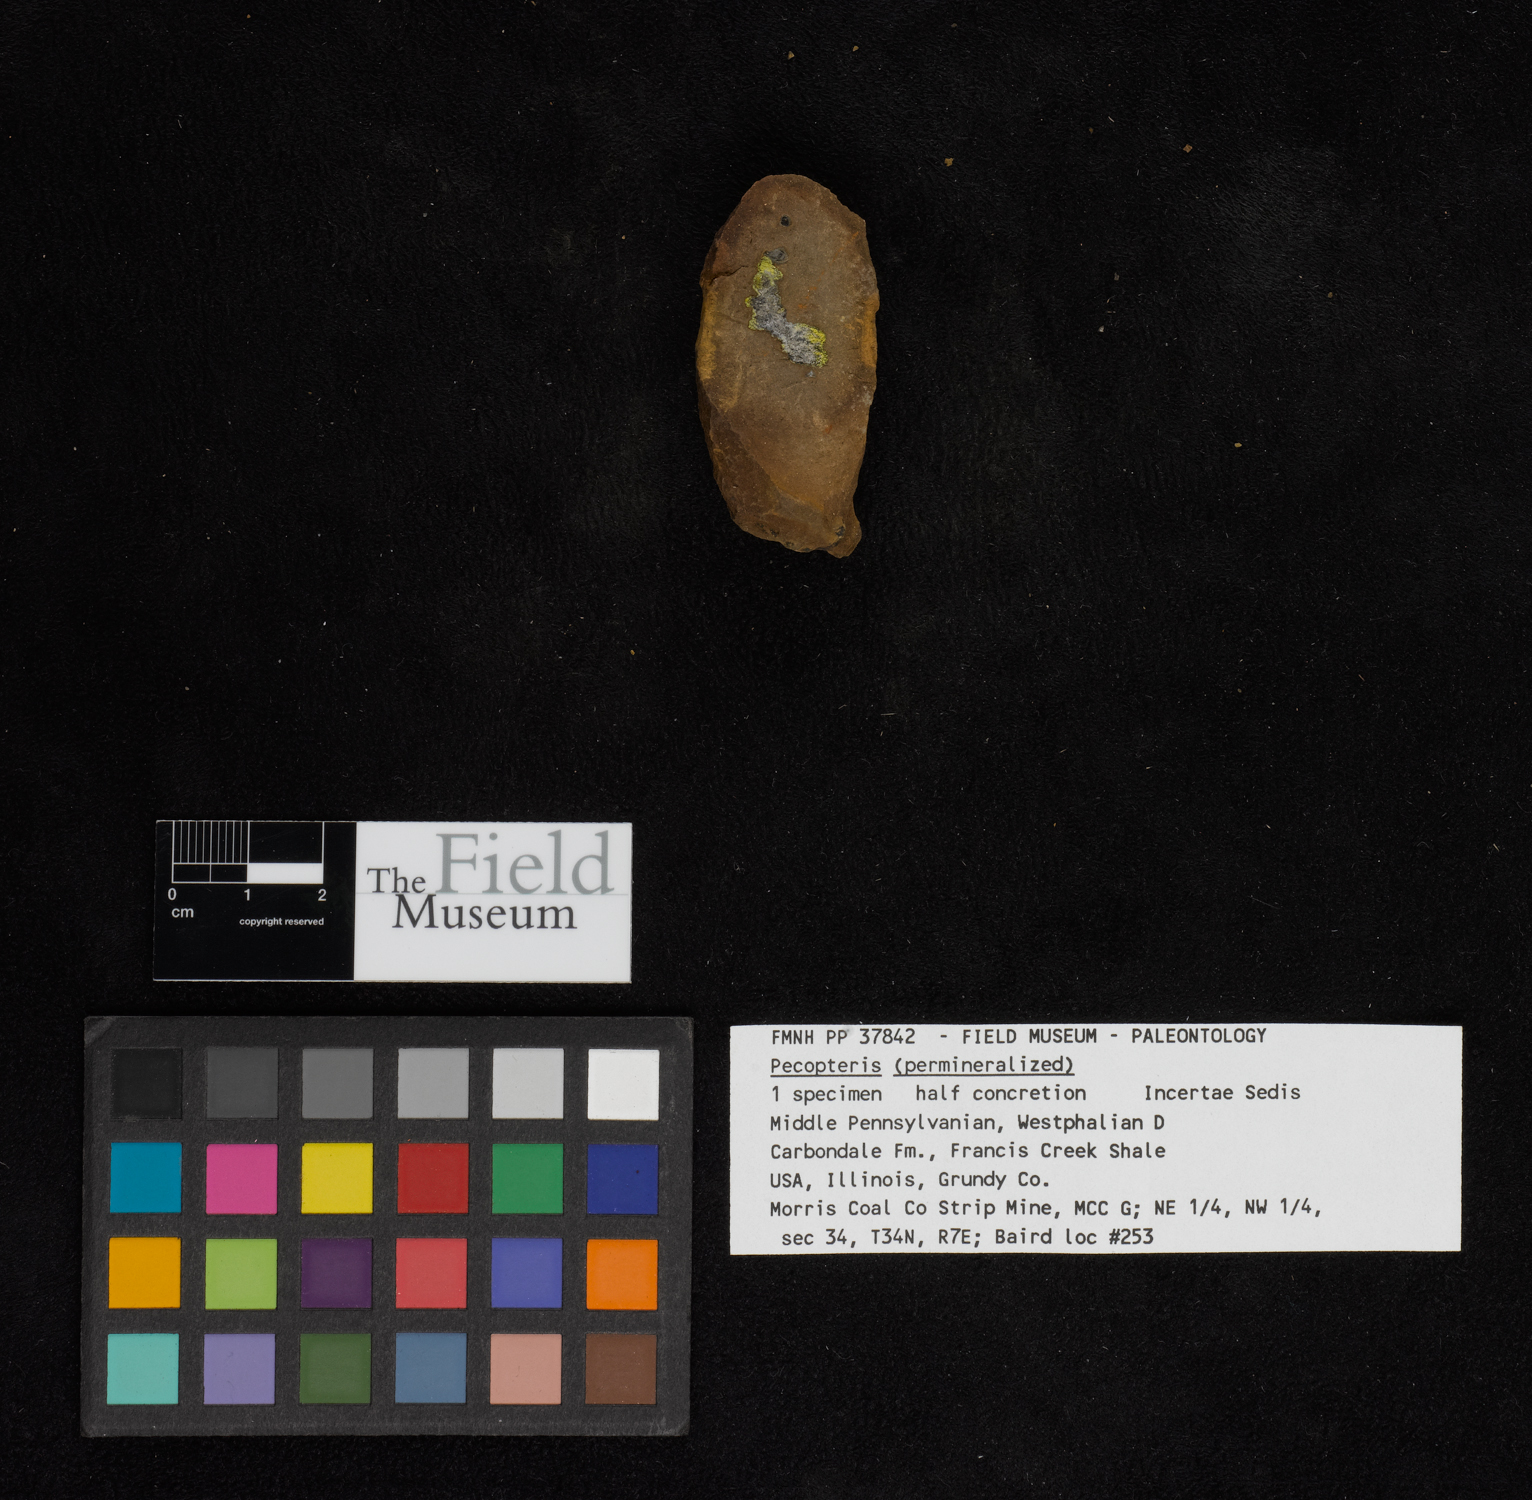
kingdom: Plantae
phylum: Tracheophyta
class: Polypodiopsida
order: Marattiales
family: Asterothecaceae
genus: Pecopteris
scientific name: Pecopteris
